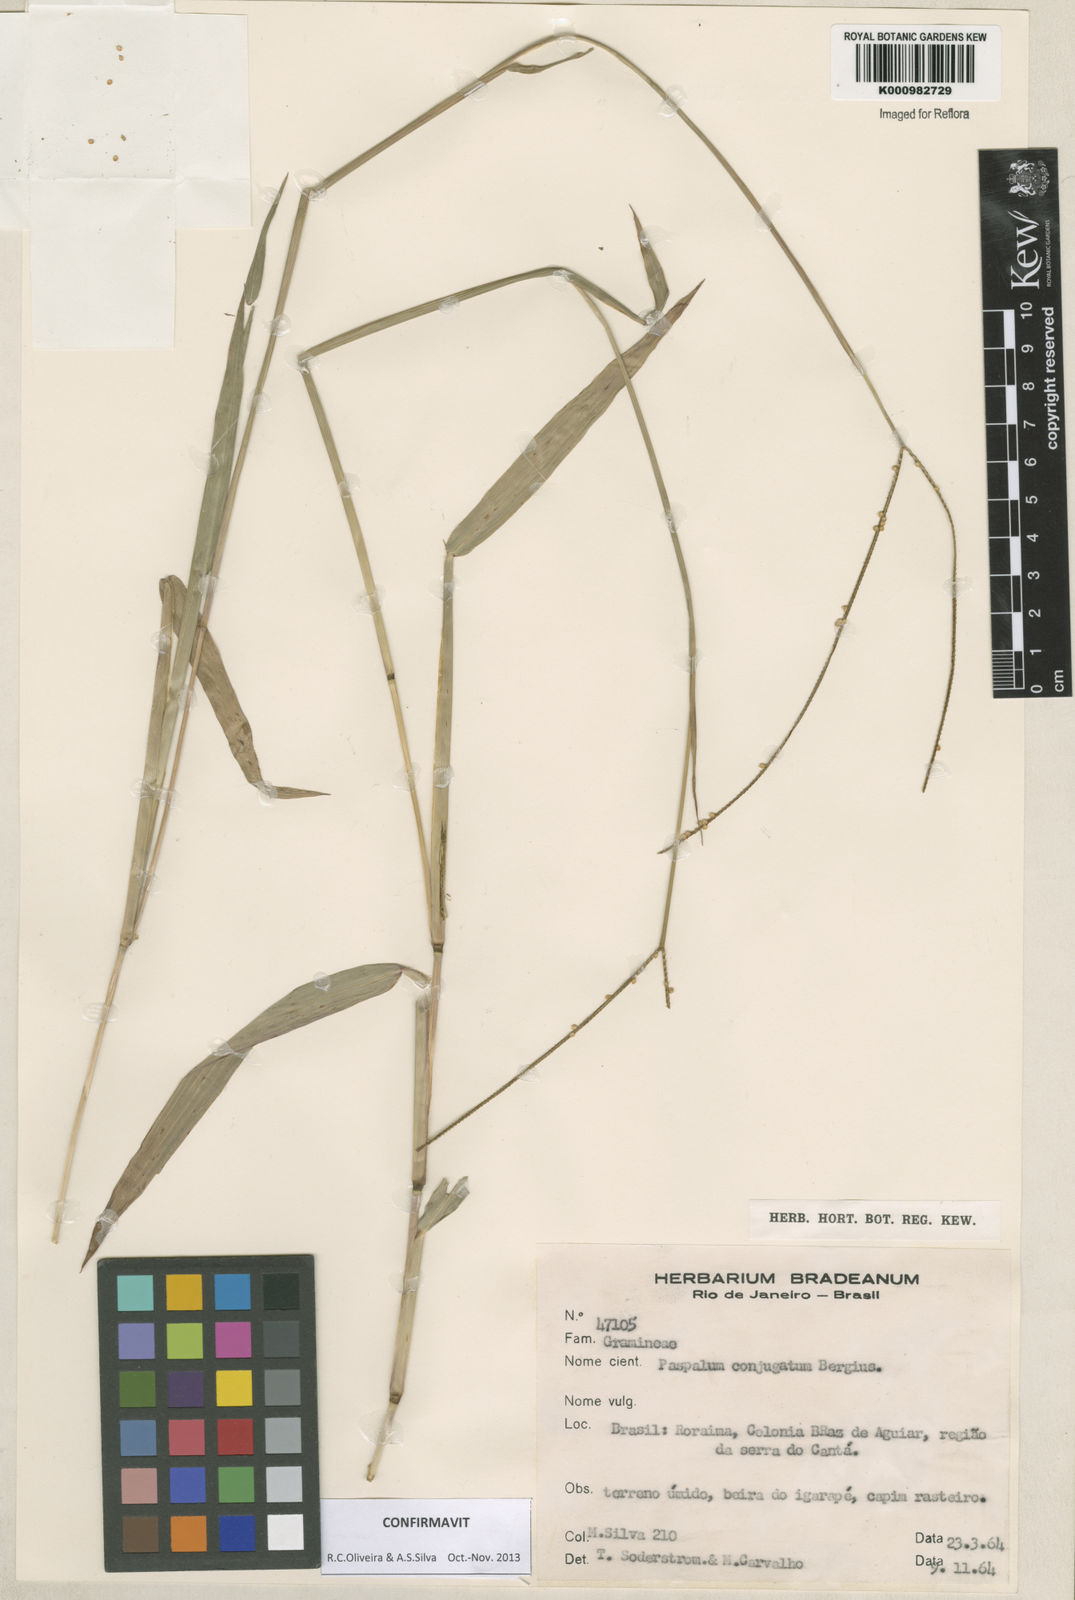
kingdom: Plantae
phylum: Tracheophyta
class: Liliopsida
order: Poales
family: Poaceae
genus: Paspalum
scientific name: Paspalum conjugatum
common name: Hilograss
